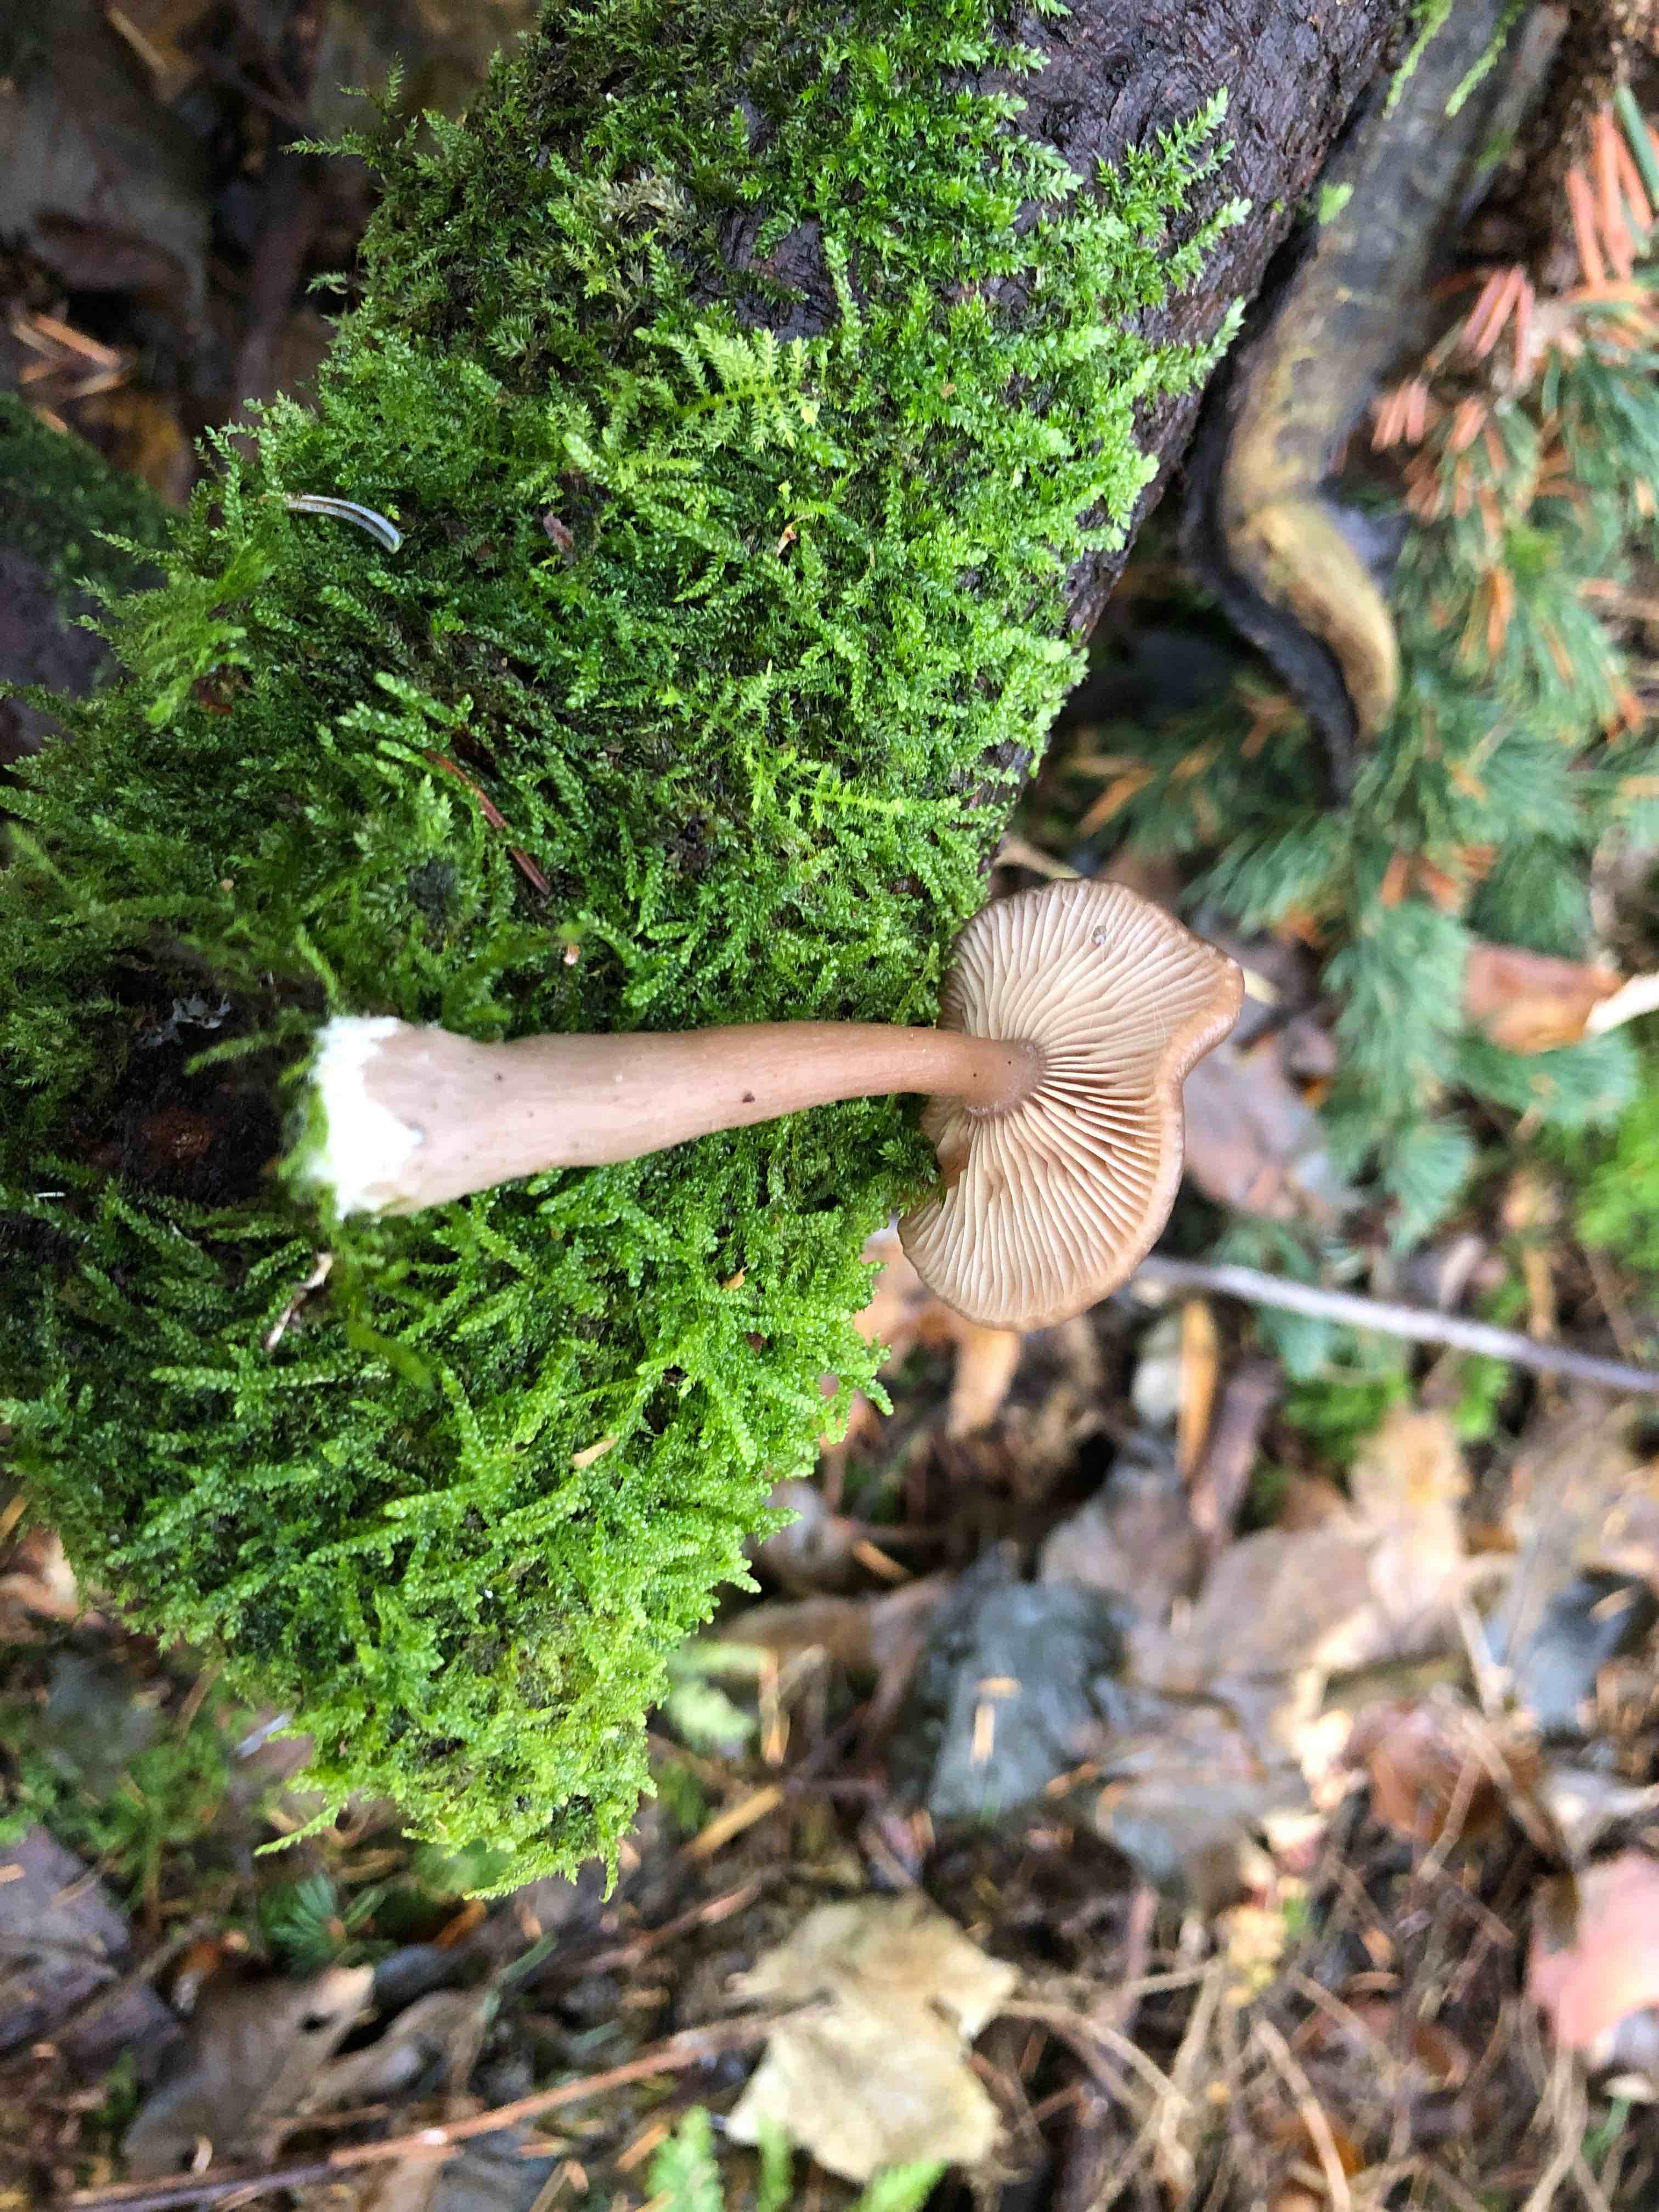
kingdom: Fungi
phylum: Basidiomycota
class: Agaricomycetes
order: Agaricales
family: Pseudoclitocybaceae
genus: Pseudoclitocybe
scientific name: Pseudoclitocybe cyathiformis
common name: almindelig bægertragthat
